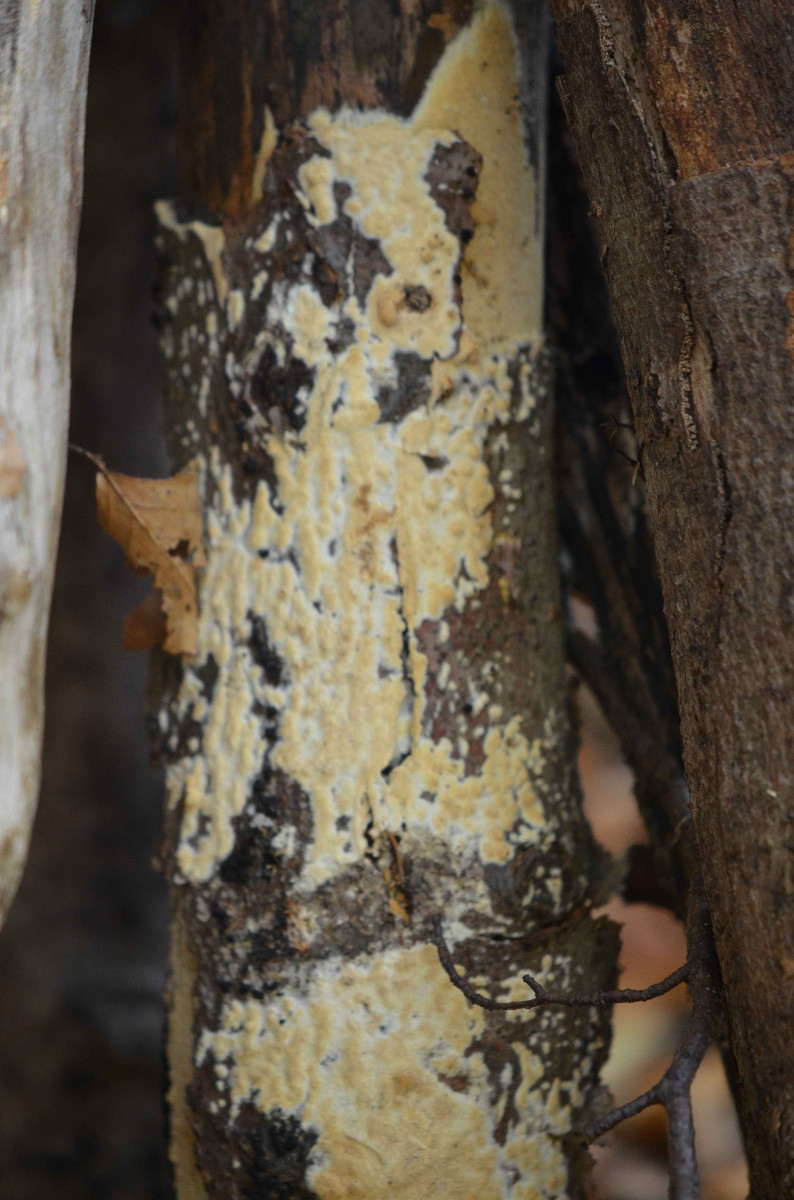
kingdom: Fungi
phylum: Basidiomycota
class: Agaricomycetes
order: Hymenochaetales
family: Schizoporaceae
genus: Xylodon
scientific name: Xylodon
